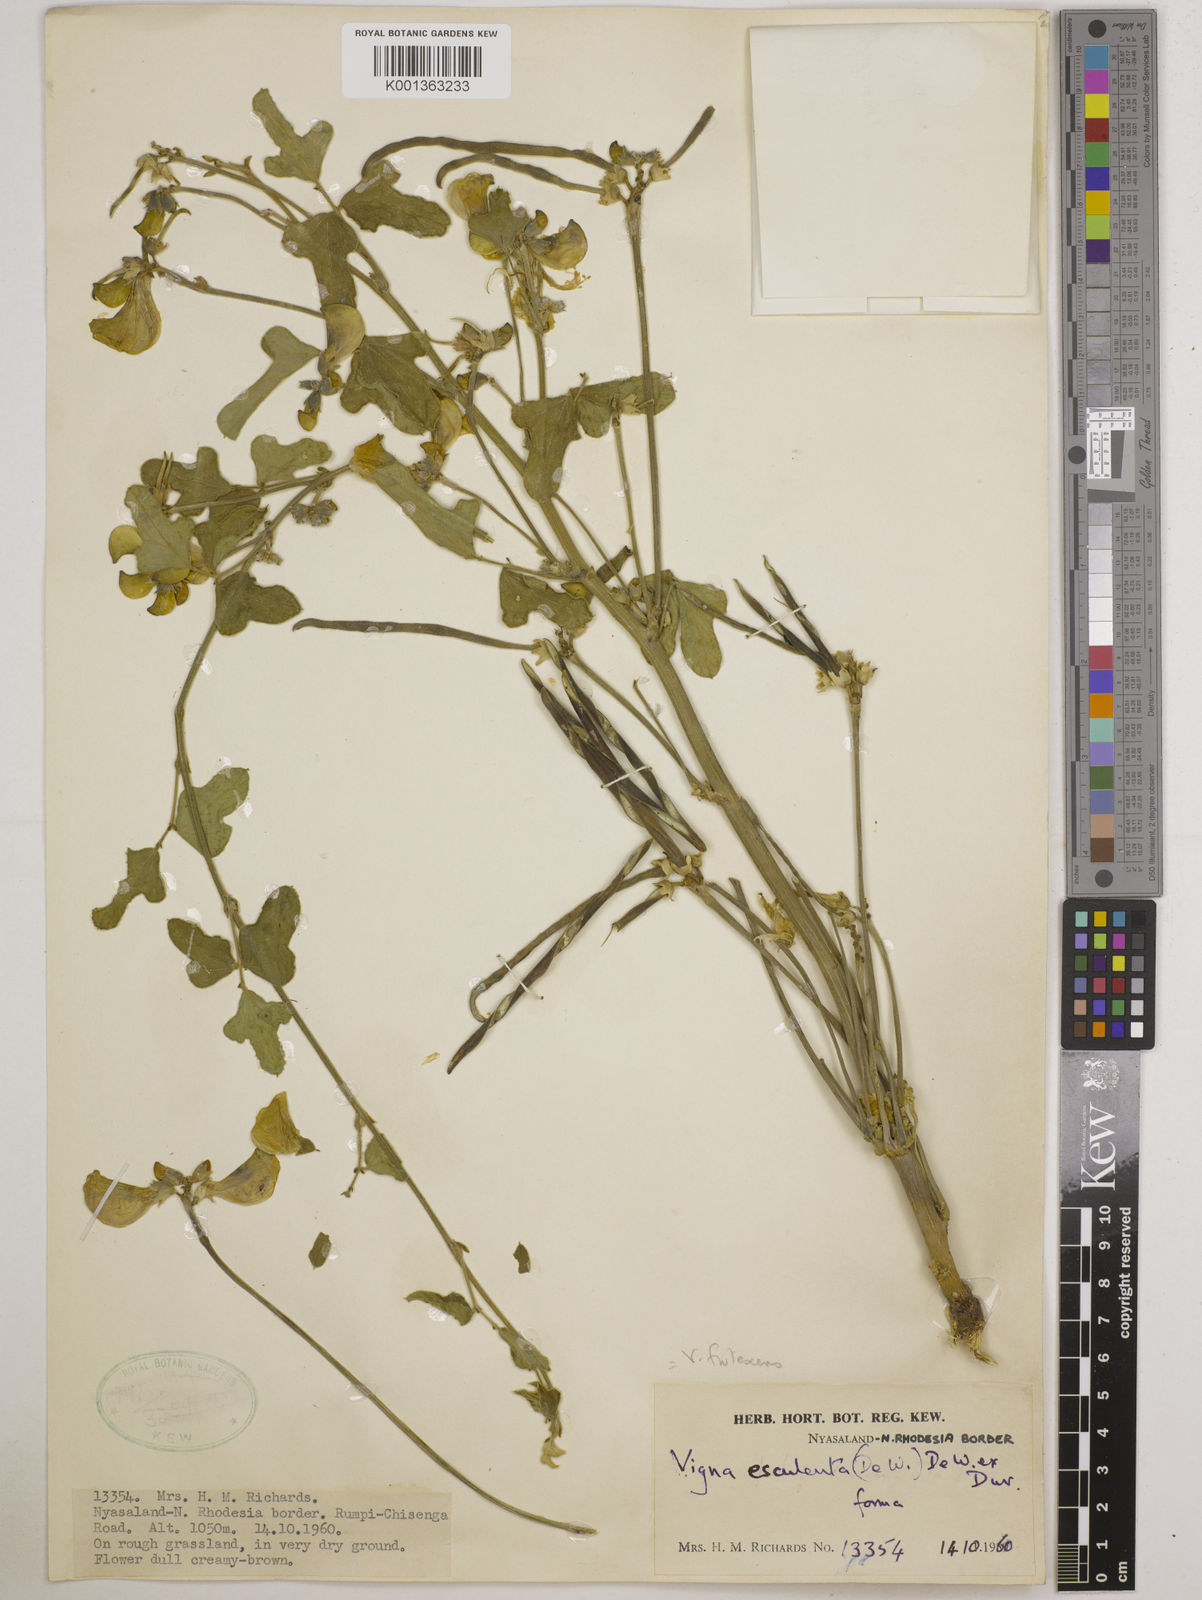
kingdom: Plantae
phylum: Tracheophyta
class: Magnoliopsida
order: Fabales
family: Fabaceae
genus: Vigna
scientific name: Vigna
